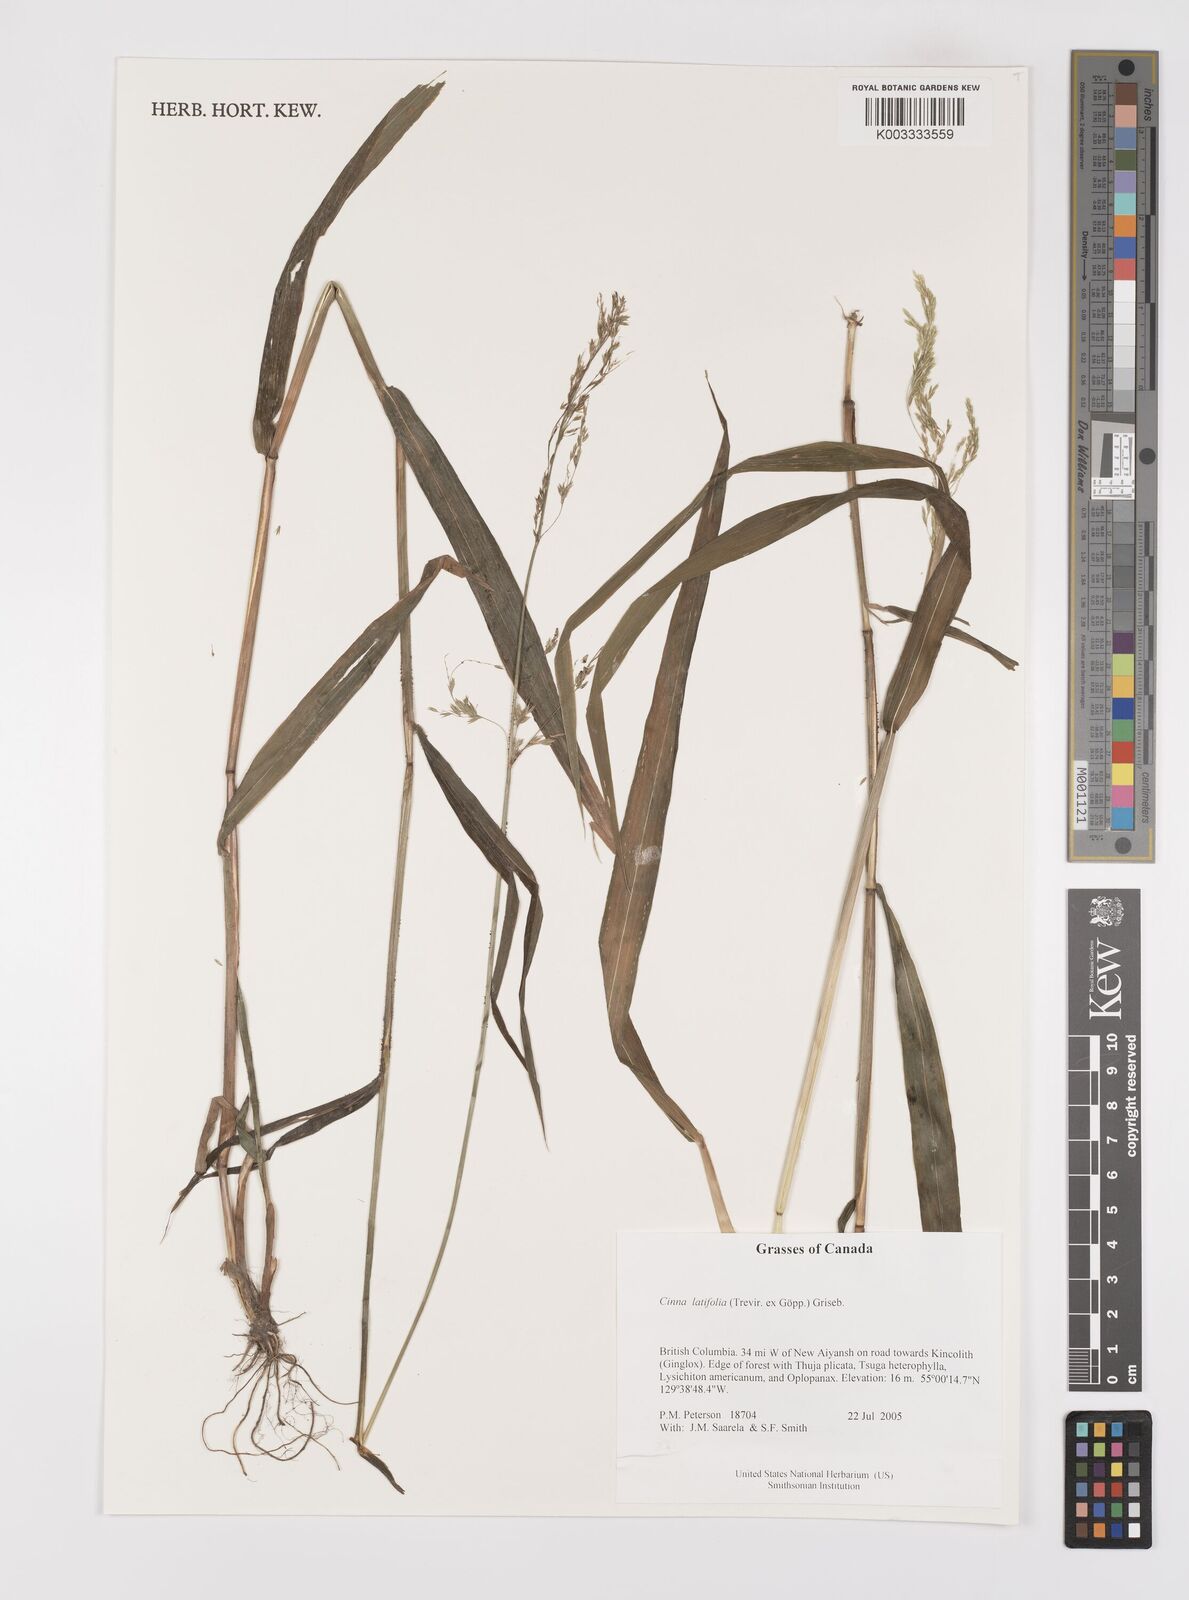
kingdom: Plantae
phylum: Tracheophyta
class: Liliopsida
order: Poales
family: Poaceae
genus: Cinna
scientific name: Cinna latifolia
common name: Drooping woodreed
